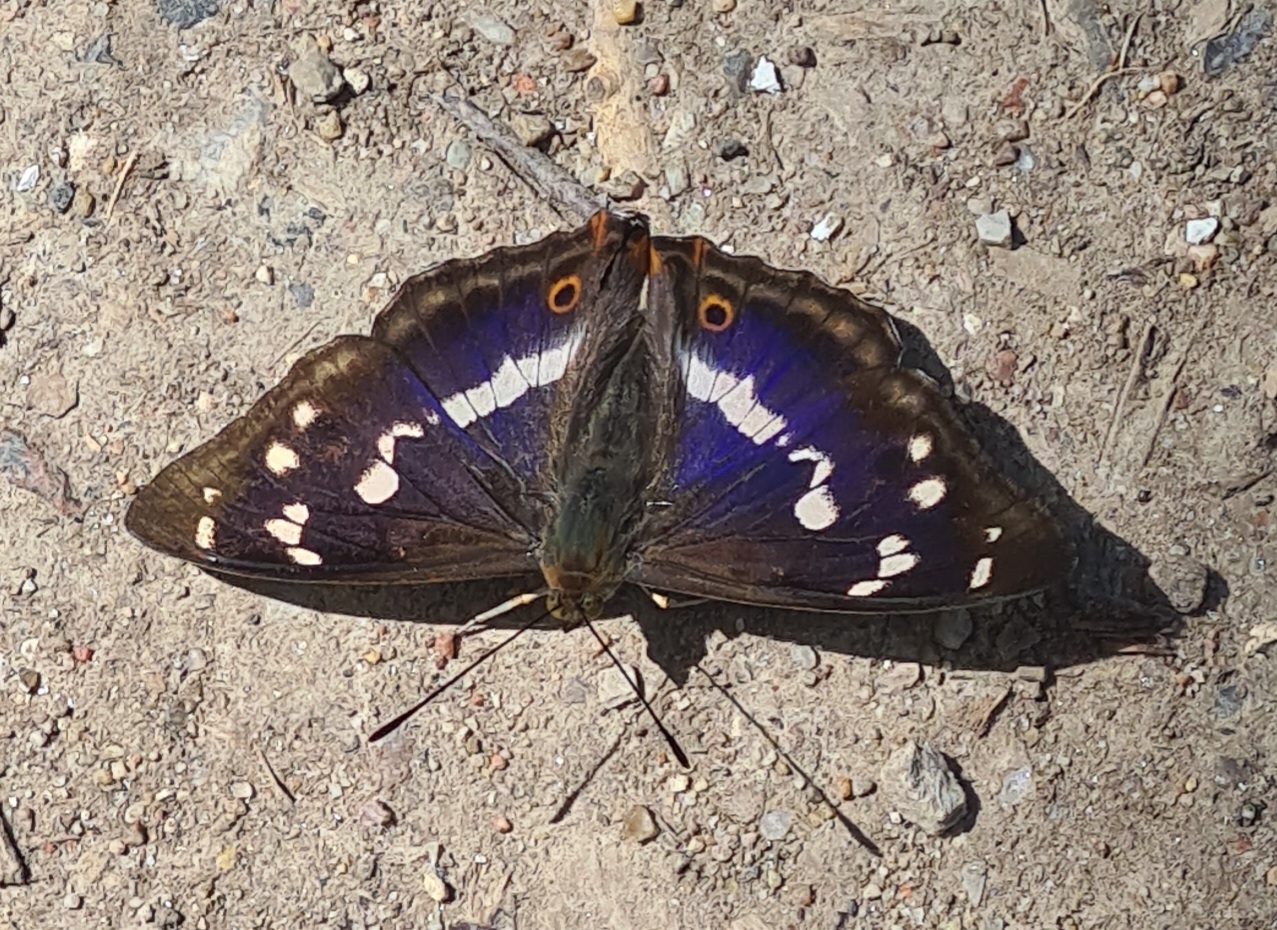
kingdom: Animalia
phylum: Arthropoda
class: Insecta
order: Lepidoptera
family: Nymphalidae
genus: Apatura
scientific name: Apatura iris
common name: Iris
